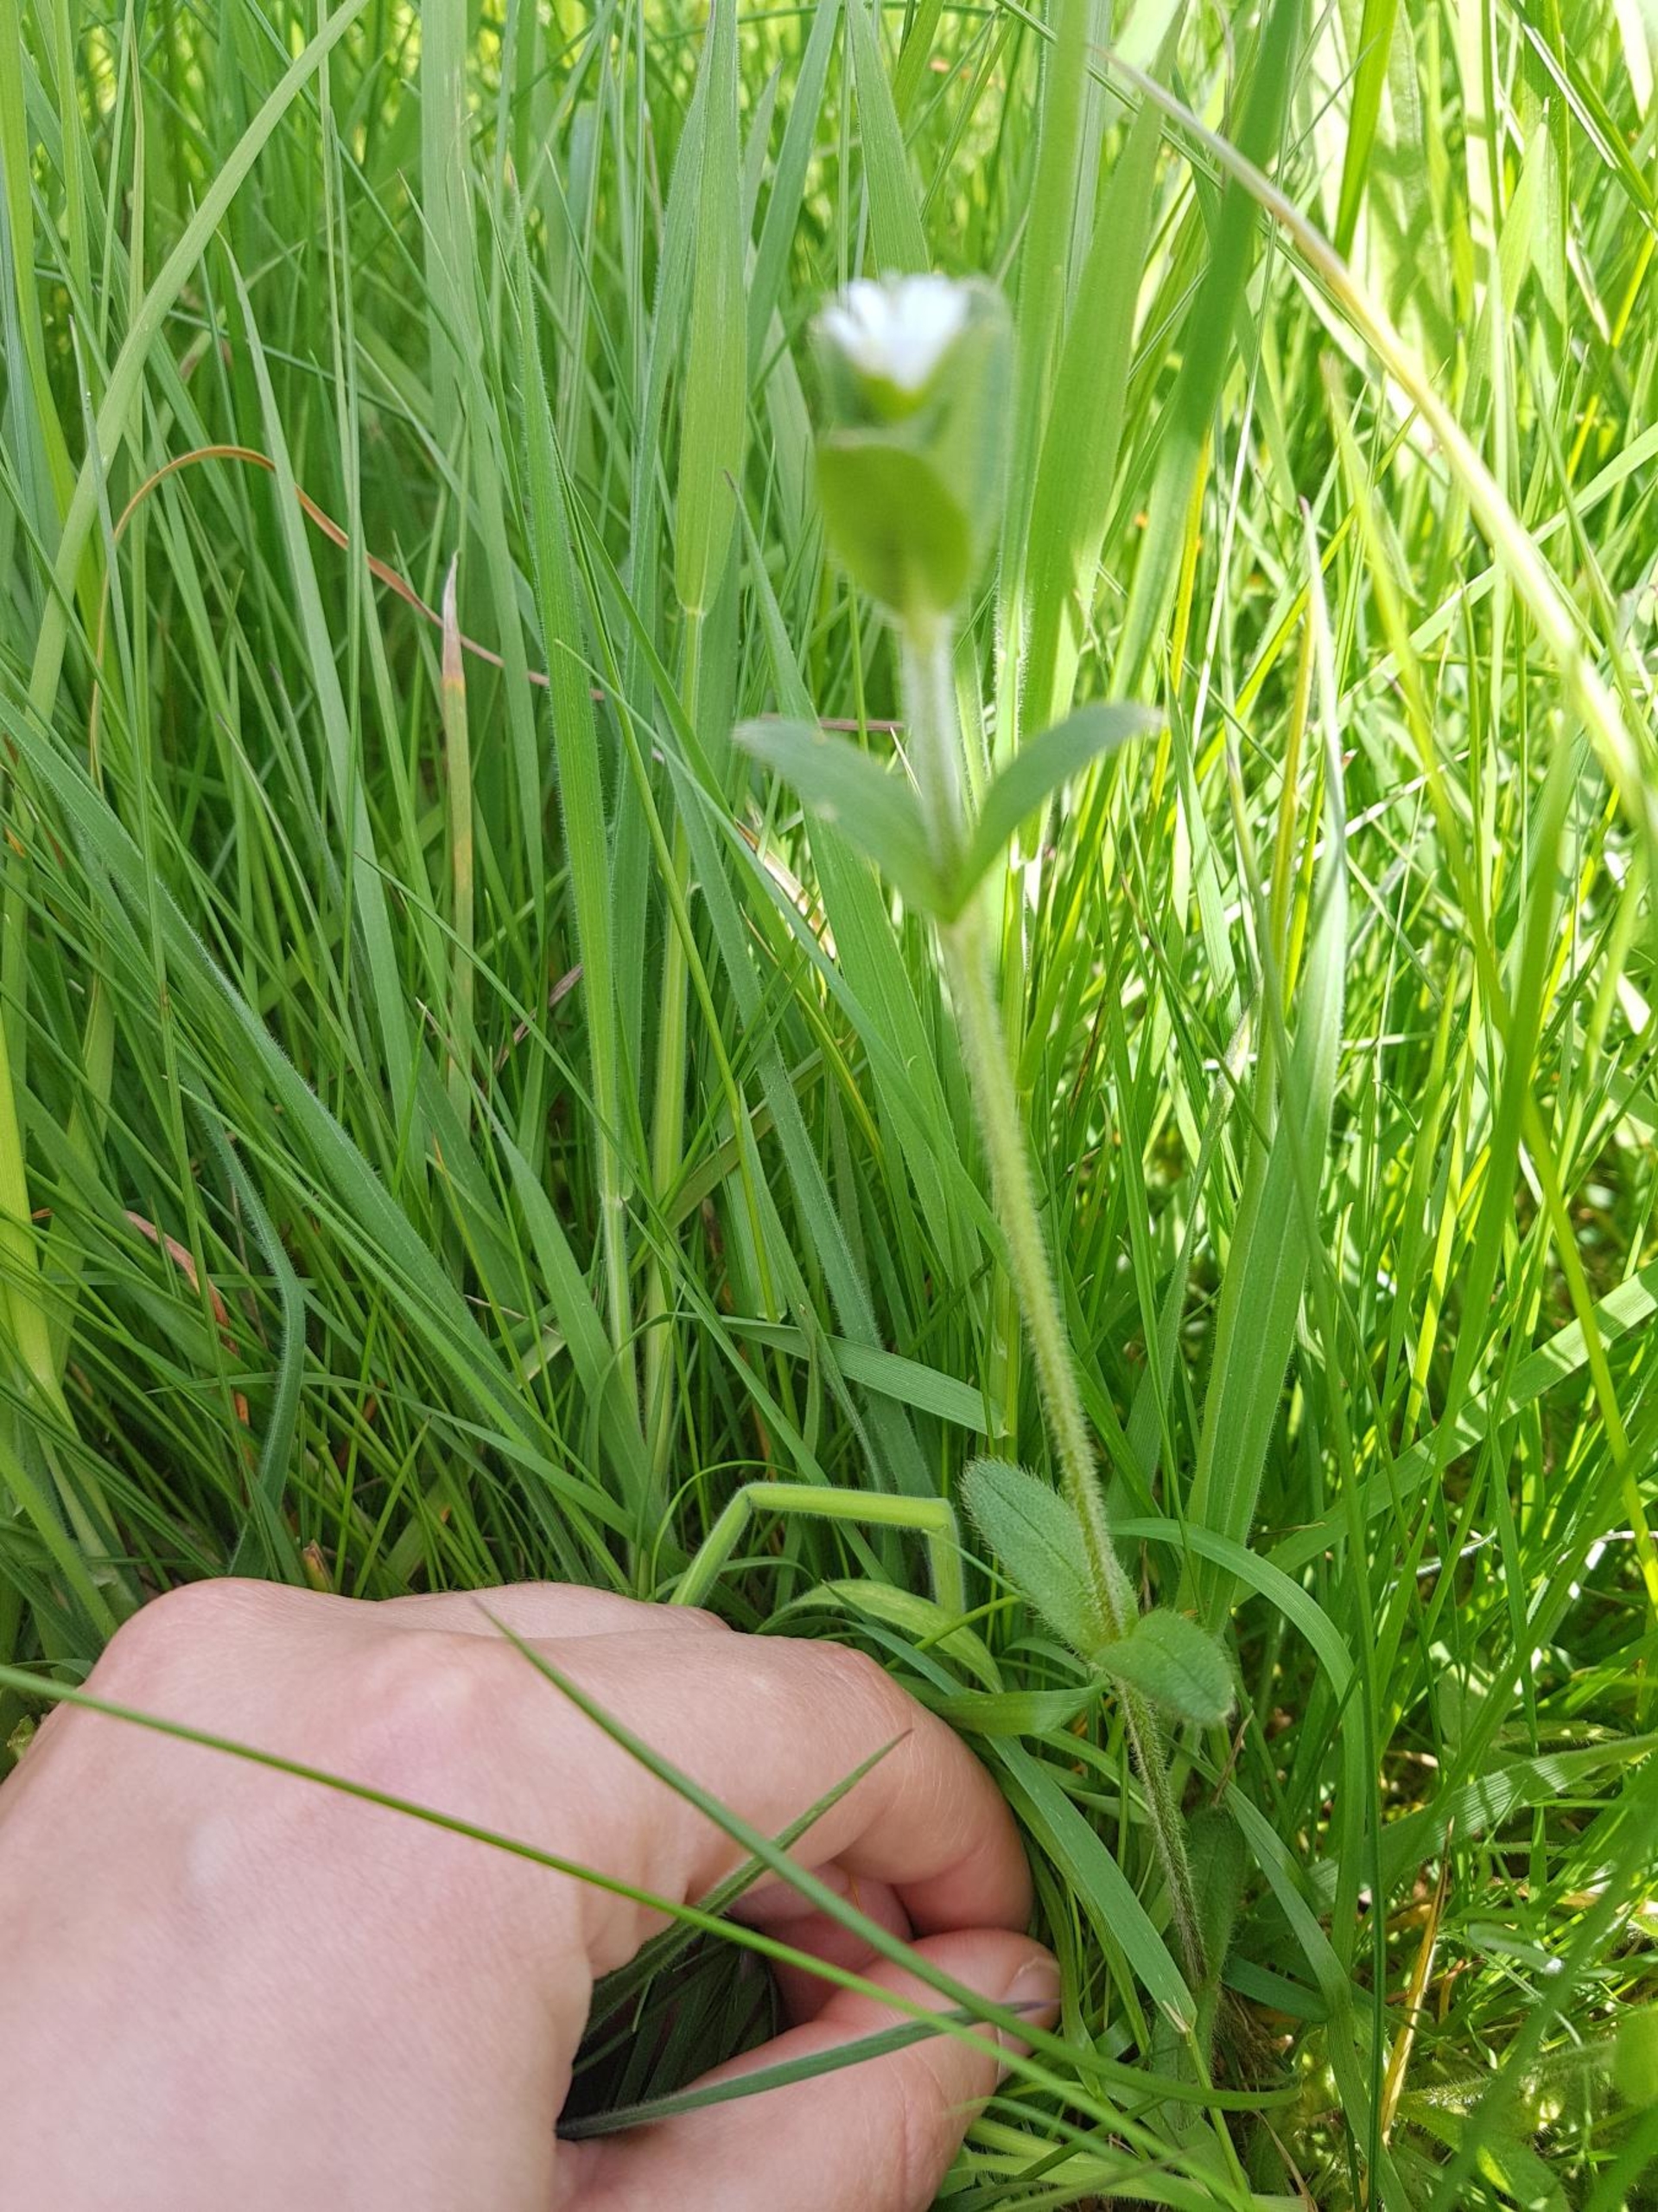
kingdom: Plantae
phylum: Tracheophyta
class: Magnoliopsida
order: Caryophyllales
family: Caryophyllaceae
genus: Cerastium
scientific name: Cerastium fontanum
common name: Almindelig hønsetarm
